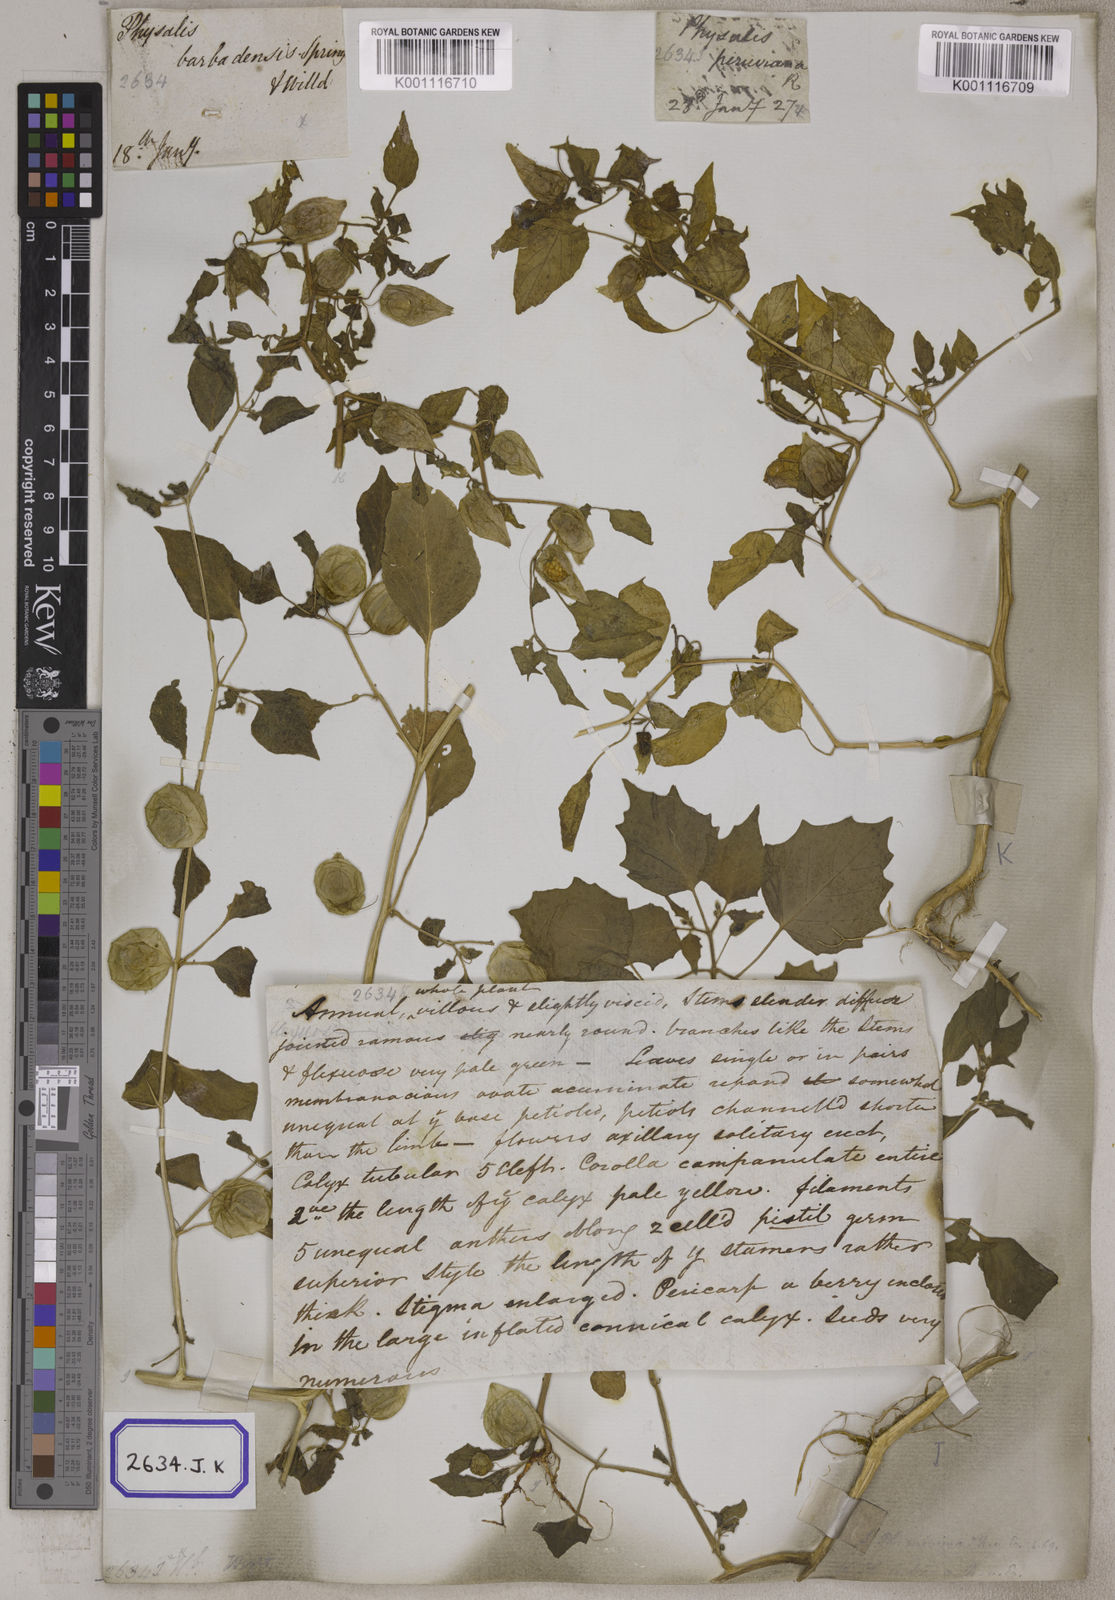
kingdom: Plantae
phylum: Tracheophyta
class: Magnoliopsida
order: Solanales
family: Solanaceae
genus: Physalis
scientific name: Physalis peruviana
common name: Cape-gooseberry
